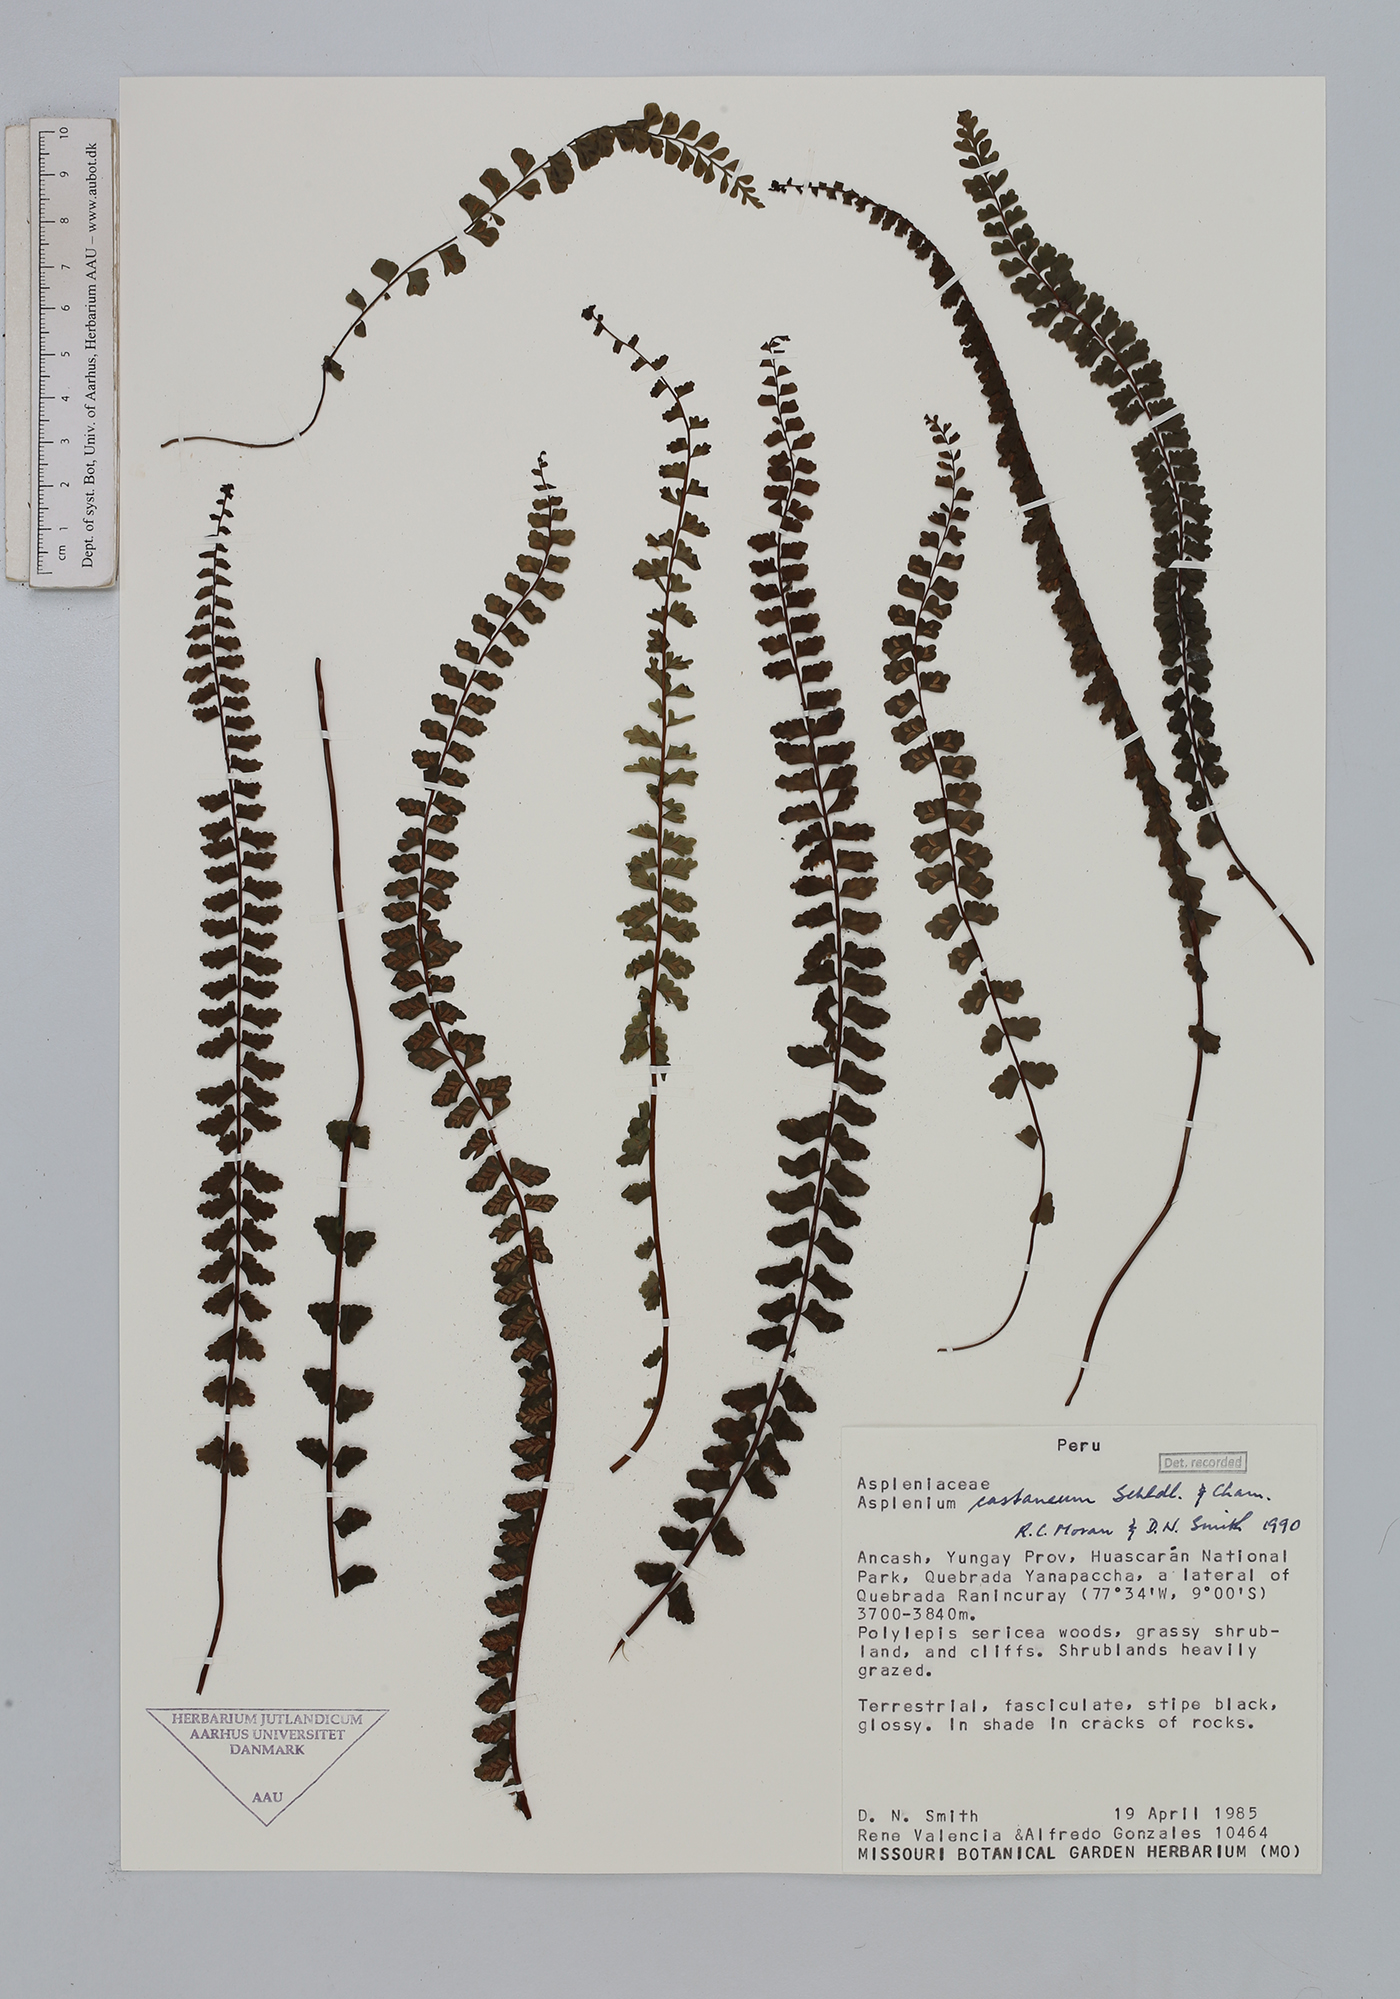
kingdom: Plantae
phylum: Tracheophyta
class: Polypodiopsida
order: Polypodiales
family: Aspleniaceae
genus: Asplenium
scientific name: Asplenium castaneum
